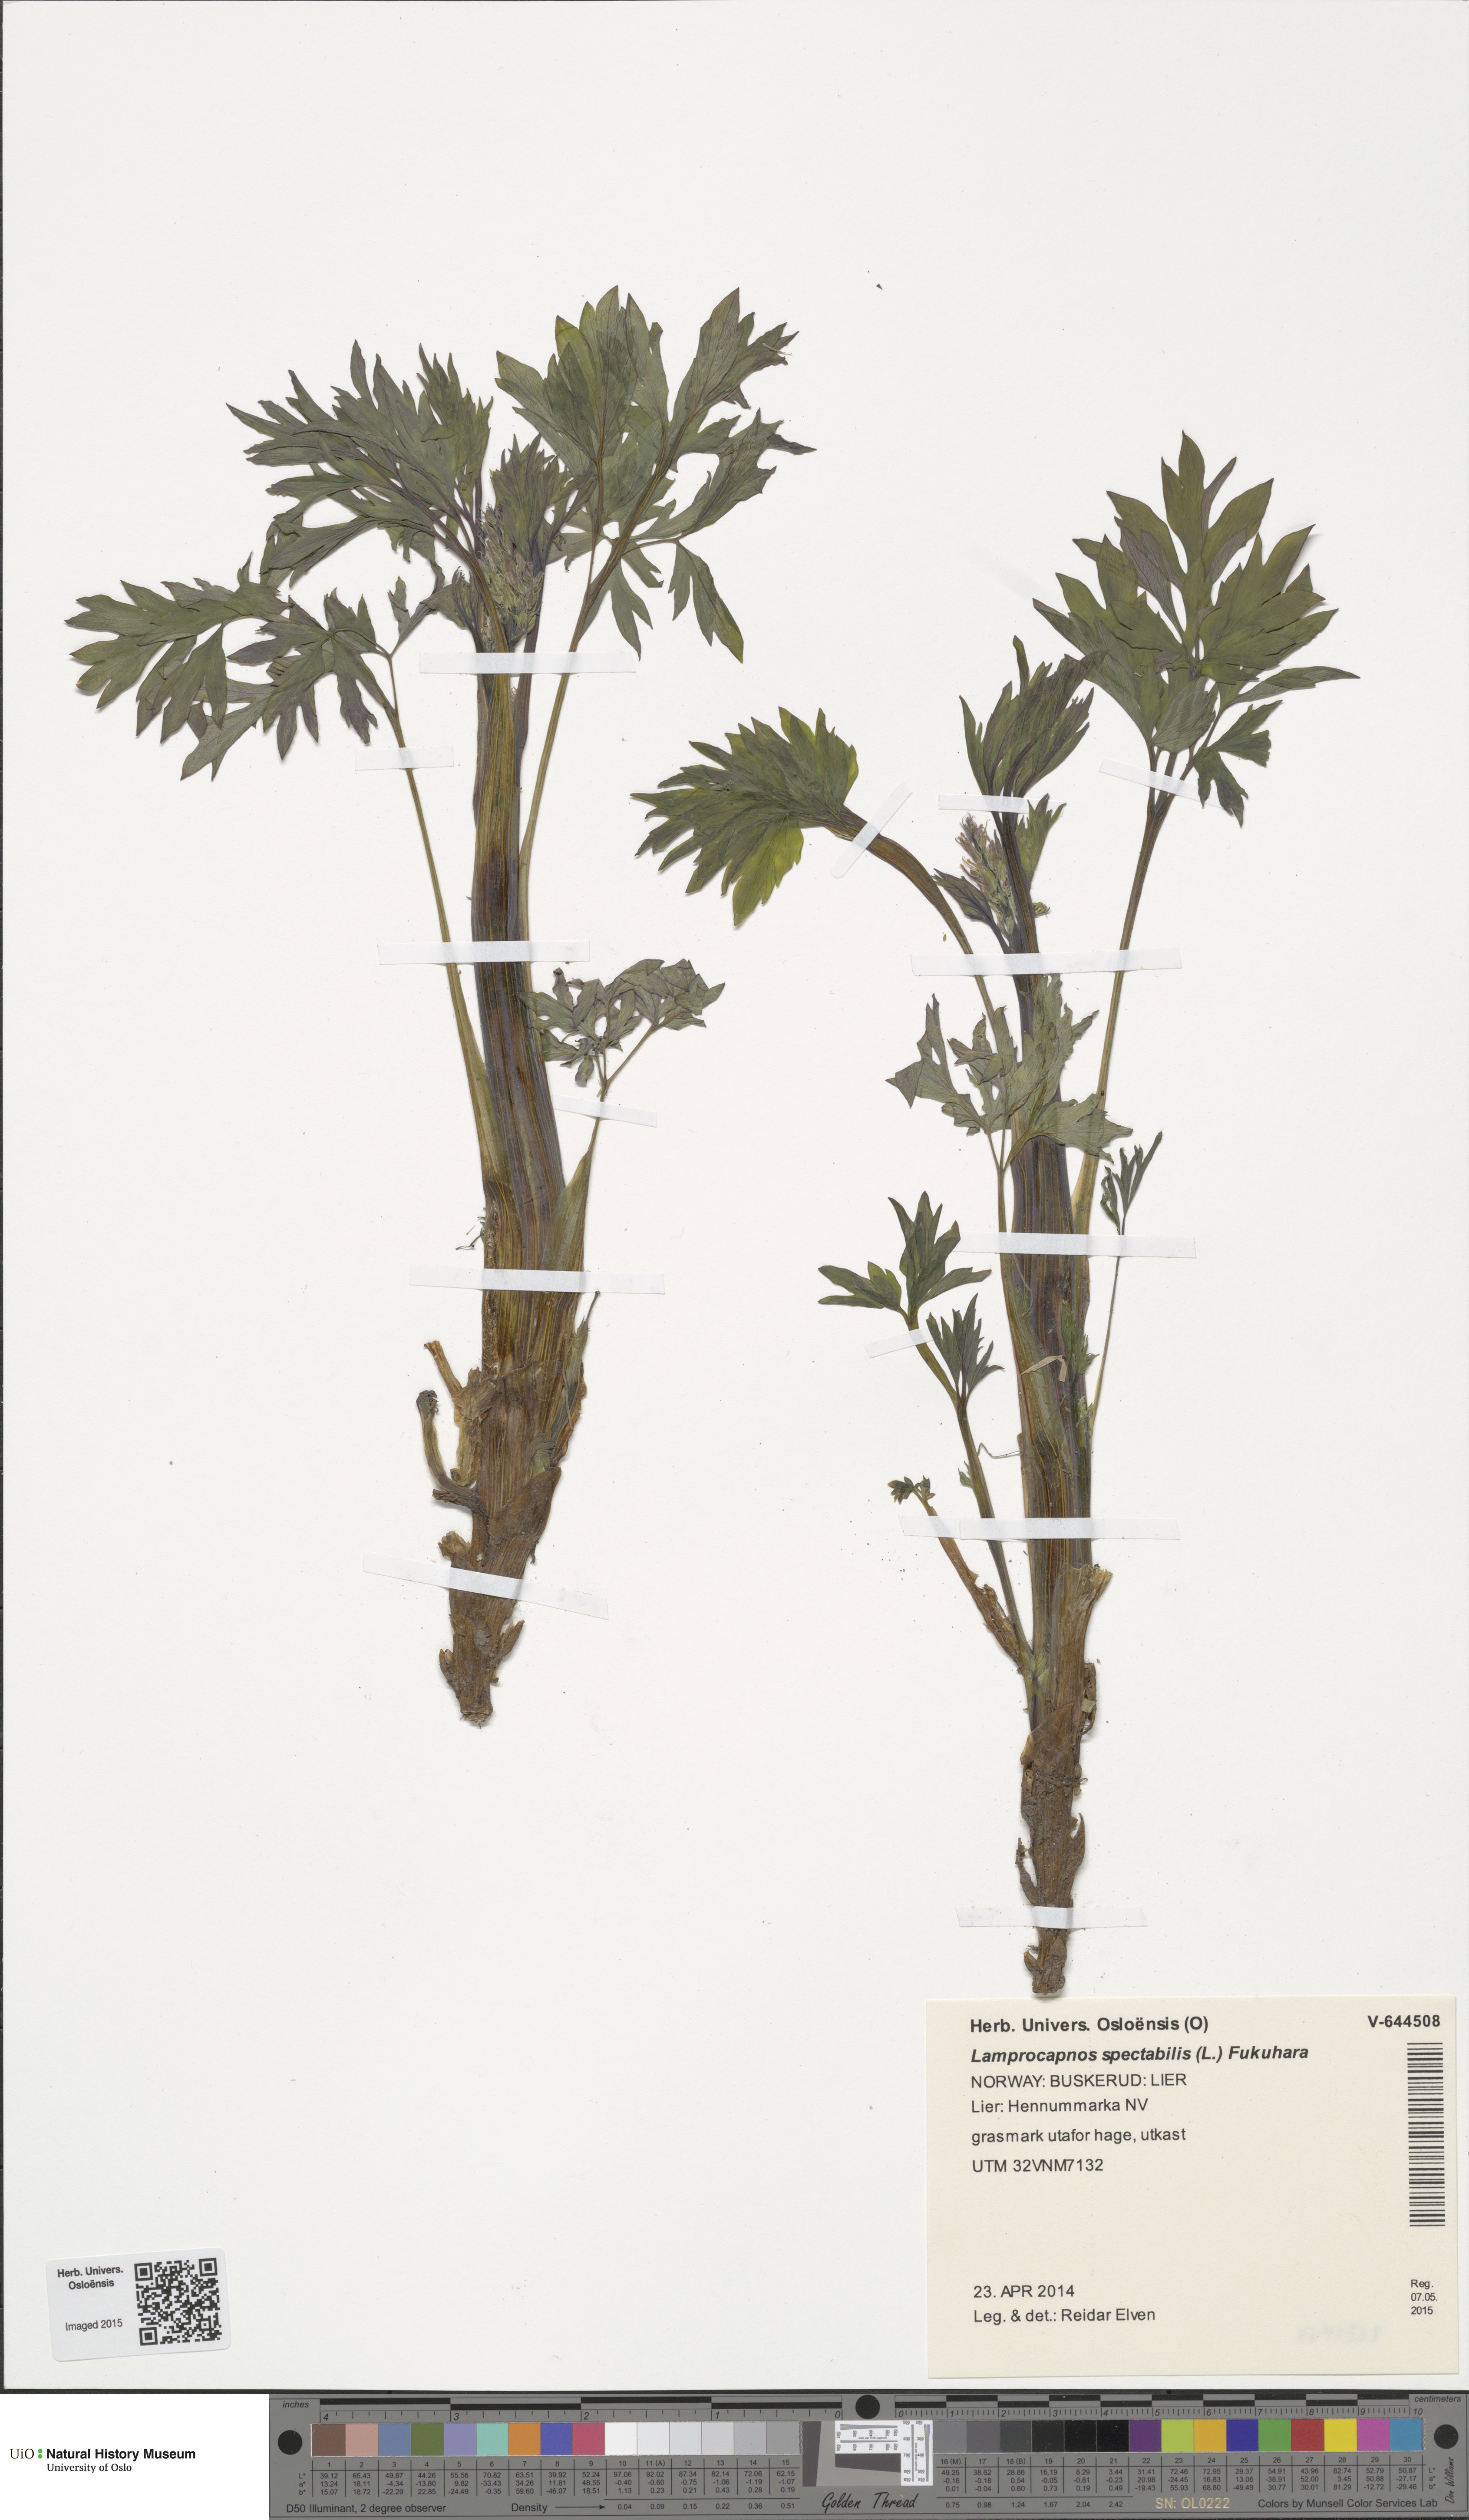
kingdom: Plantae
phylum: Tracheophyta
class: Magnoliopsida
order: Ranunculales
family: Papaveraceae
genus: Lamprocapnos
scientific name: Lamprocapnos spectabilis
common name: Asian bleeding-heart
